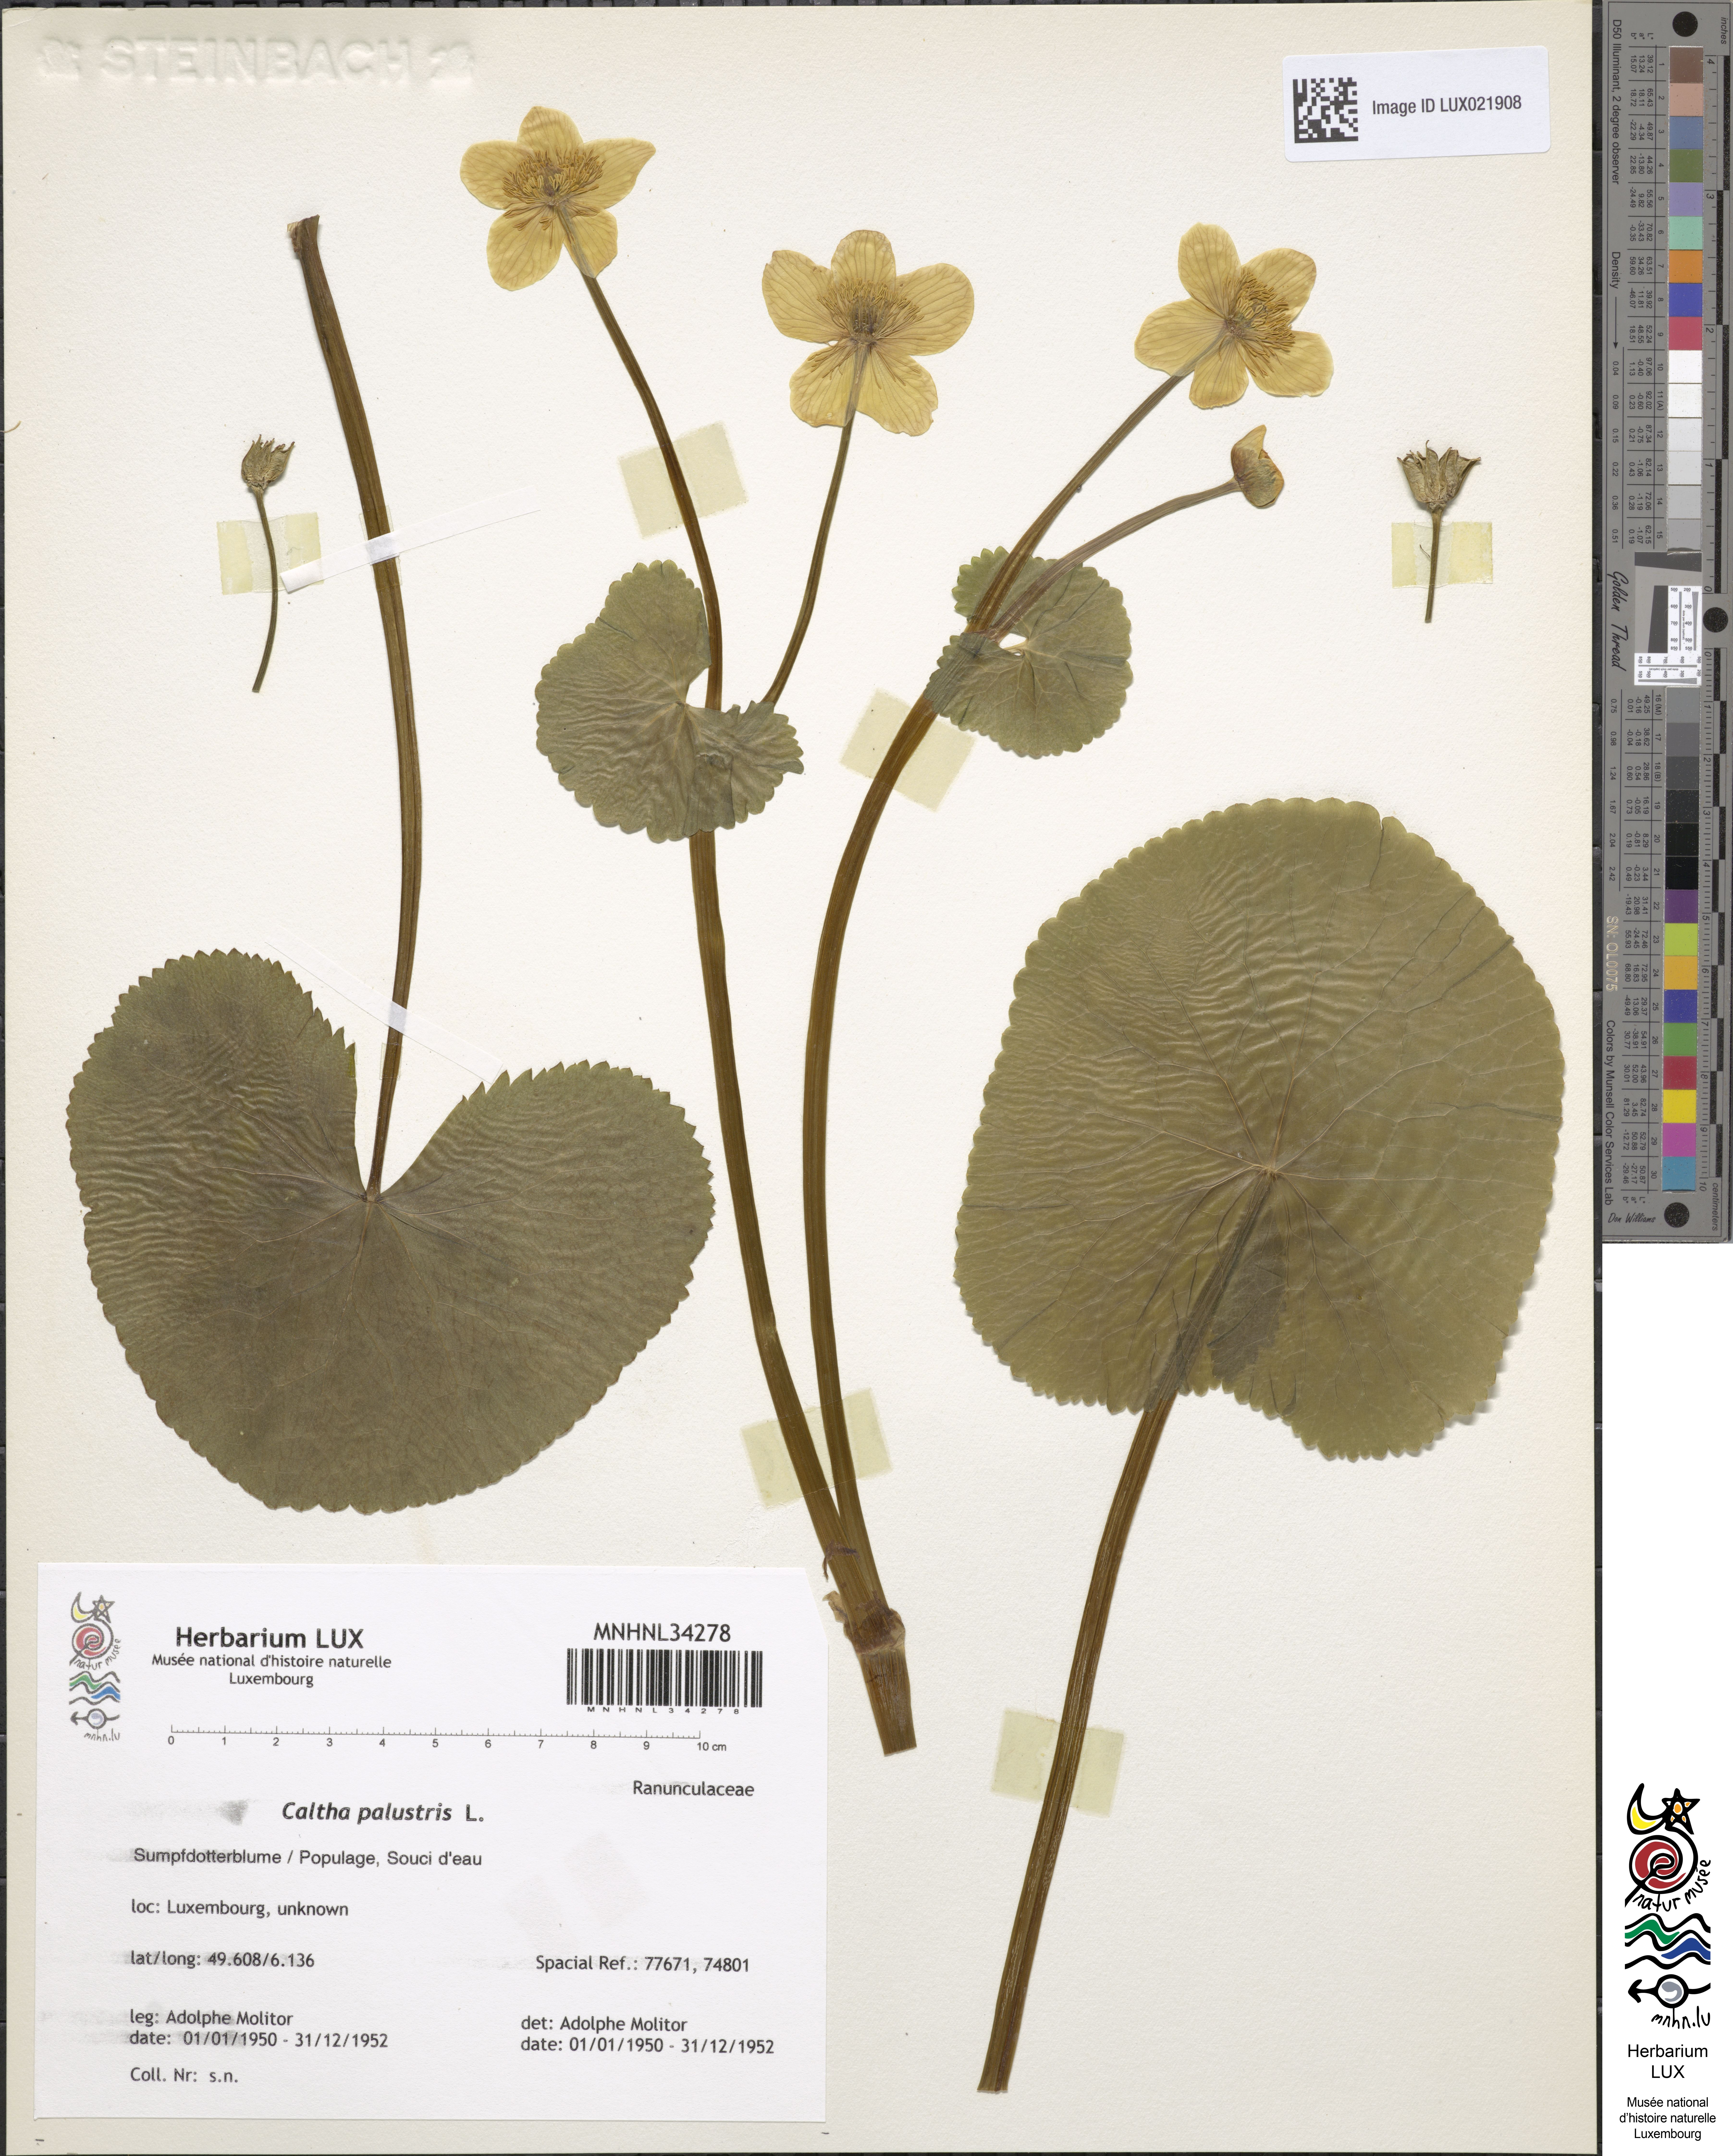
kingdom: Plantae
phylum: Tracheophyta
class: Magnoliopsida
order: Ranunculales
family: Ranunculaceae
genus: Caltha
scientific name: Caltha palustris
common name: Marsh marigold
